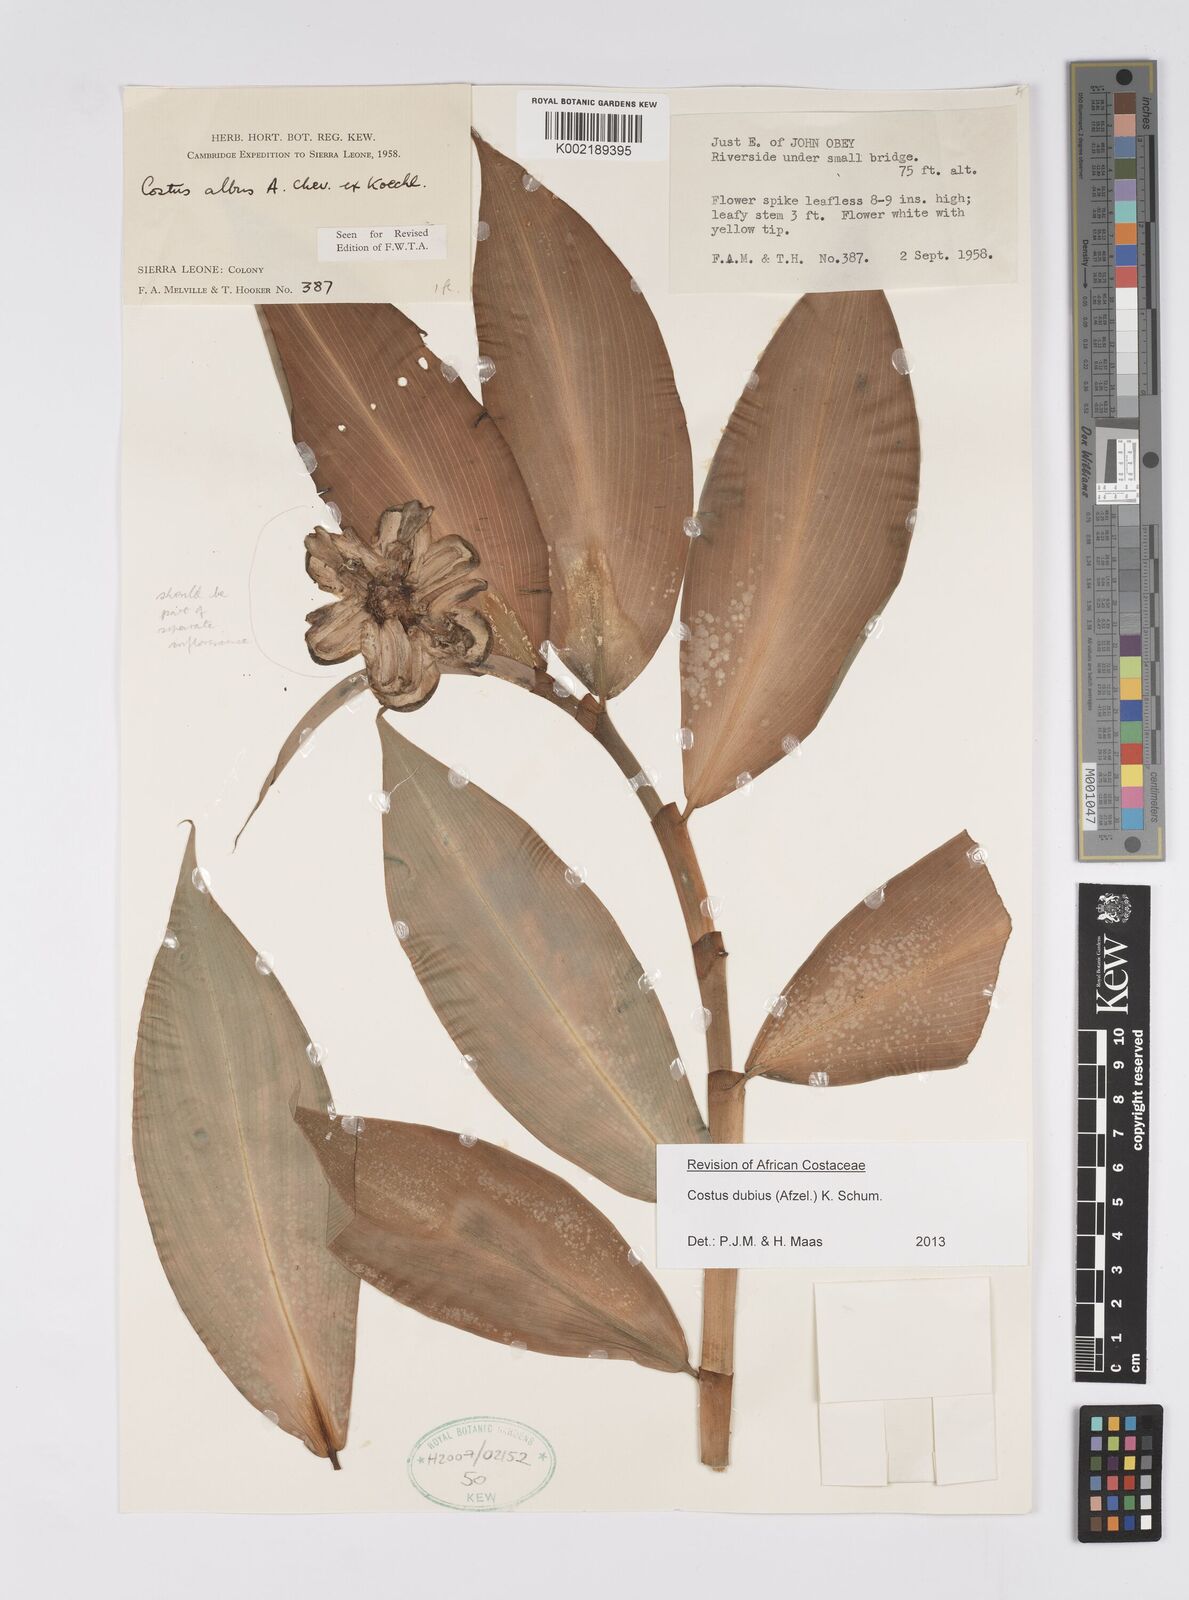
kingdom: Plantae
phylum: Tracheophyta
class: Liliopsida
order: Zingiberales
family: Costaceae
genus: Costus
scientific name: Costus dubius
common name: Costus
